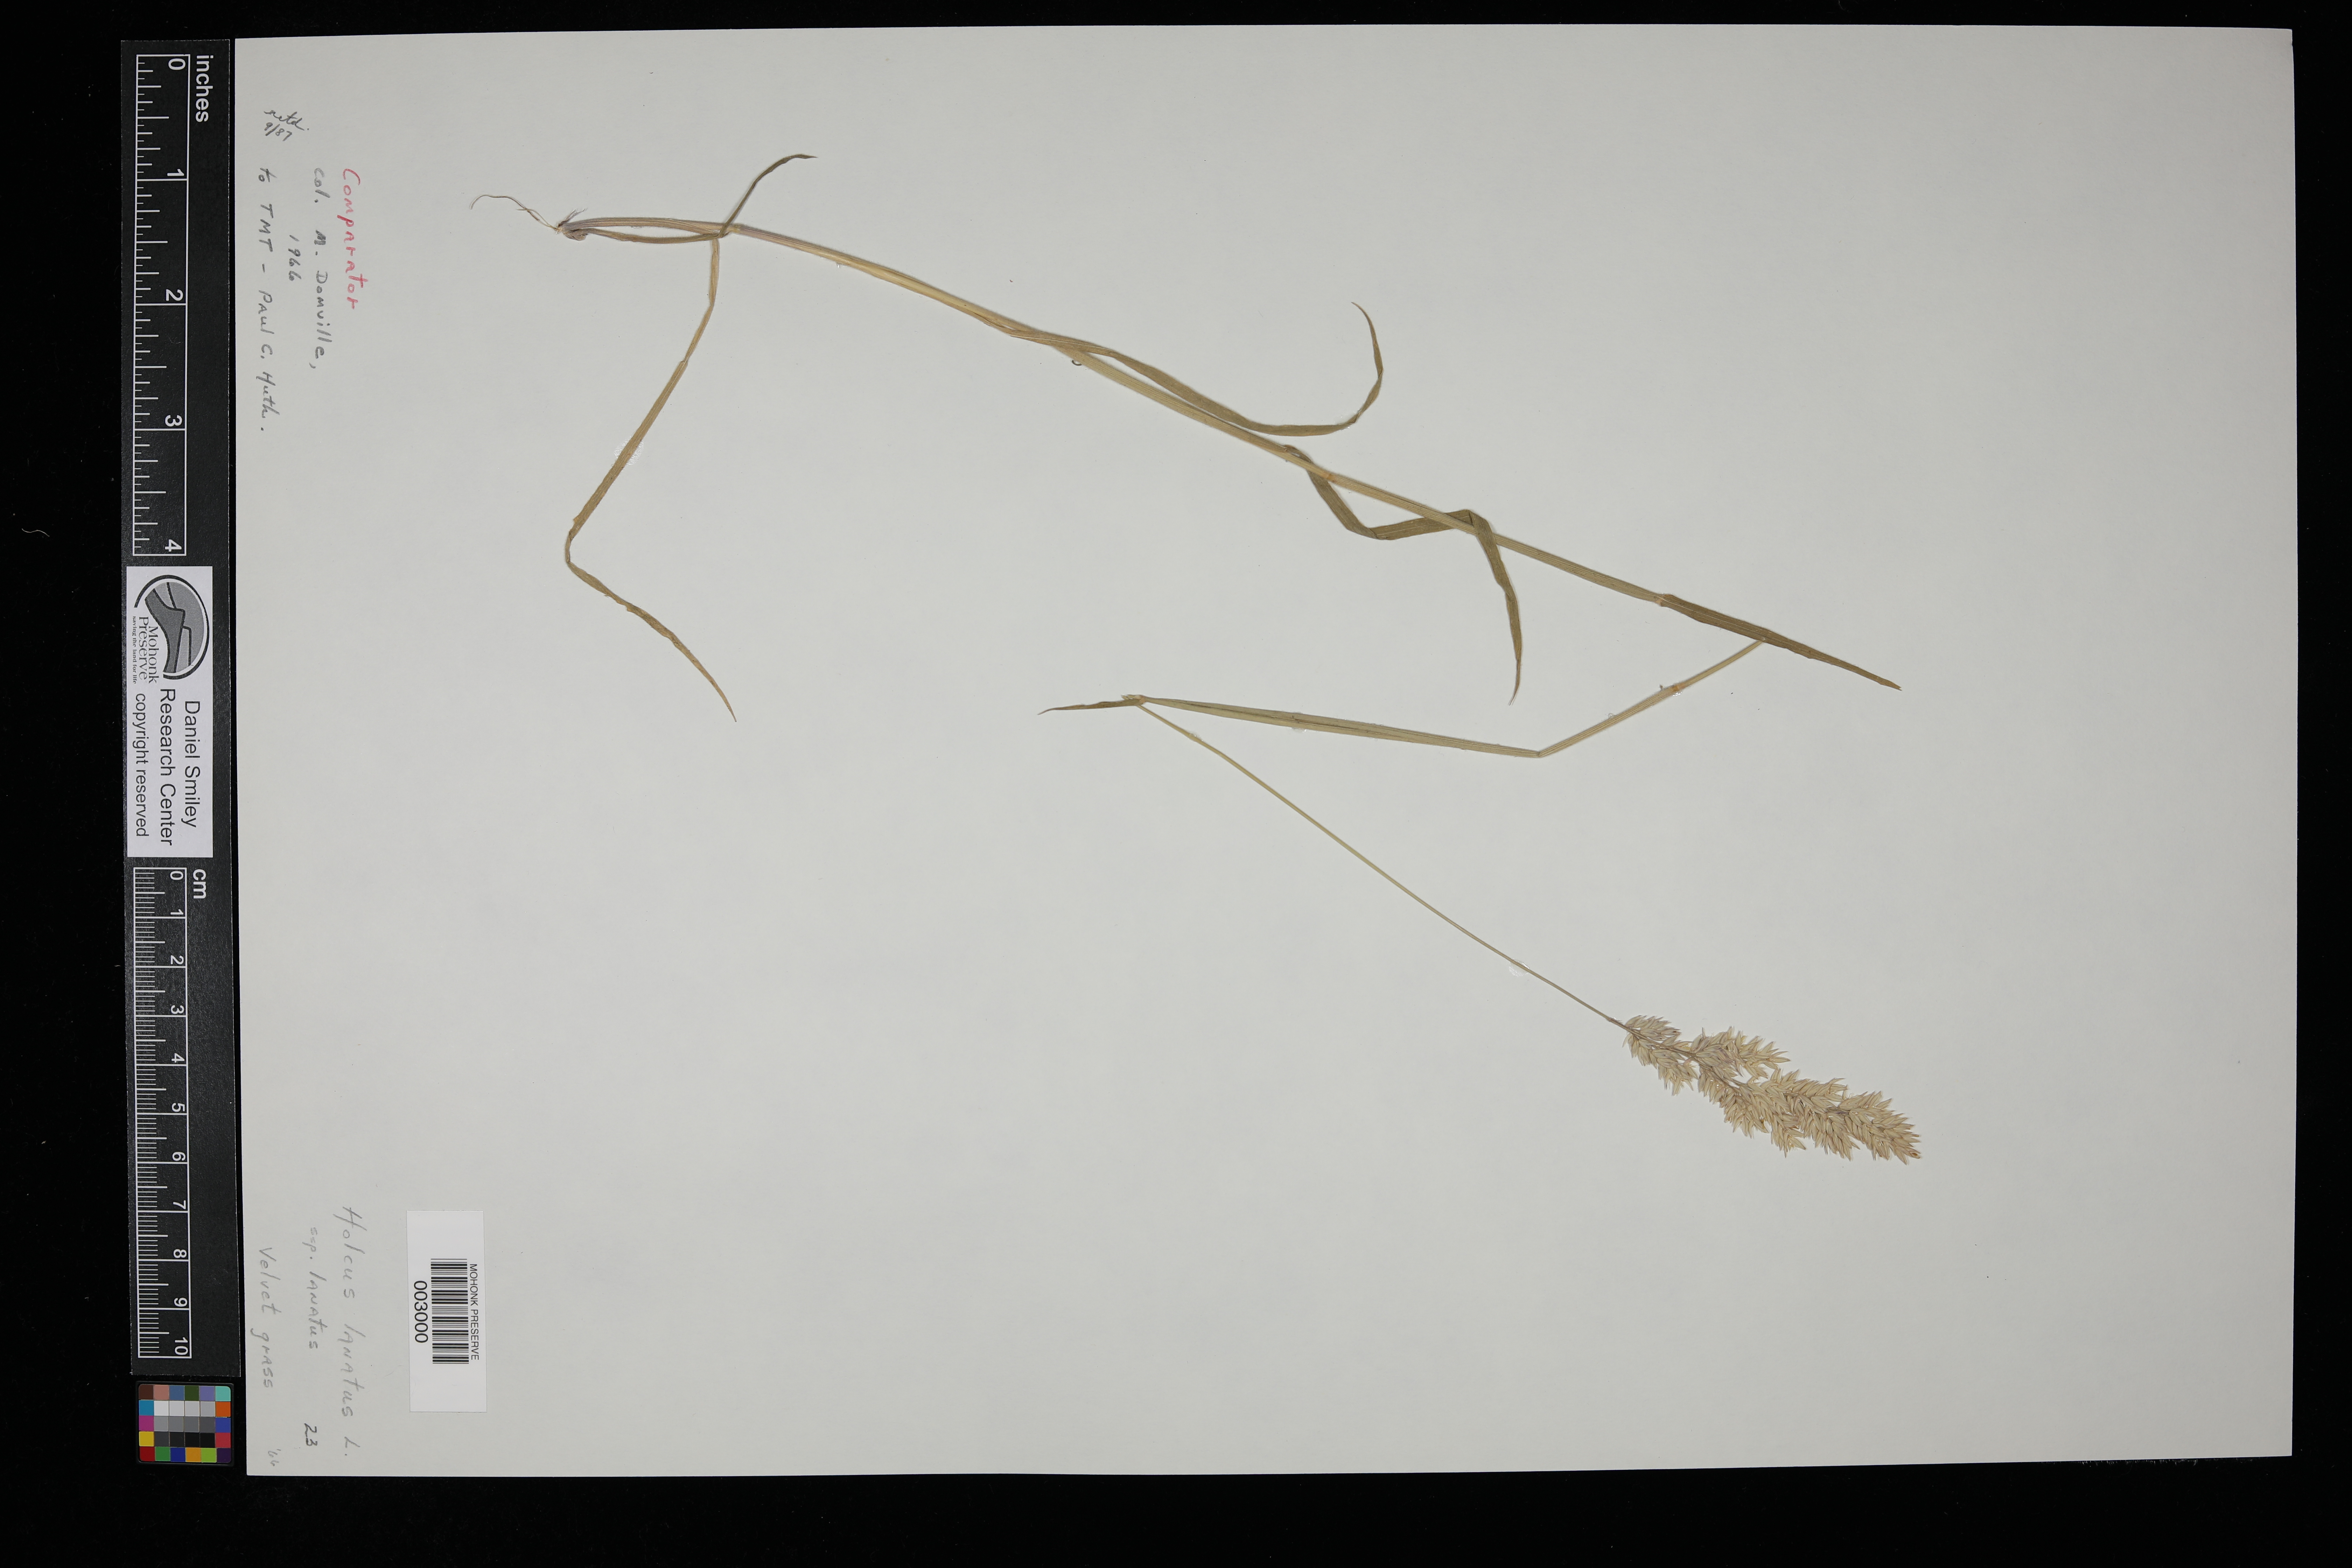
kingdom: Plantae
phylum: Tracheophyta
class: Liliopsida
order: Poales
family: Poaceae
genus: Holcus
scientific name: Holcus lanatus
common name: Yorkshire-fog
